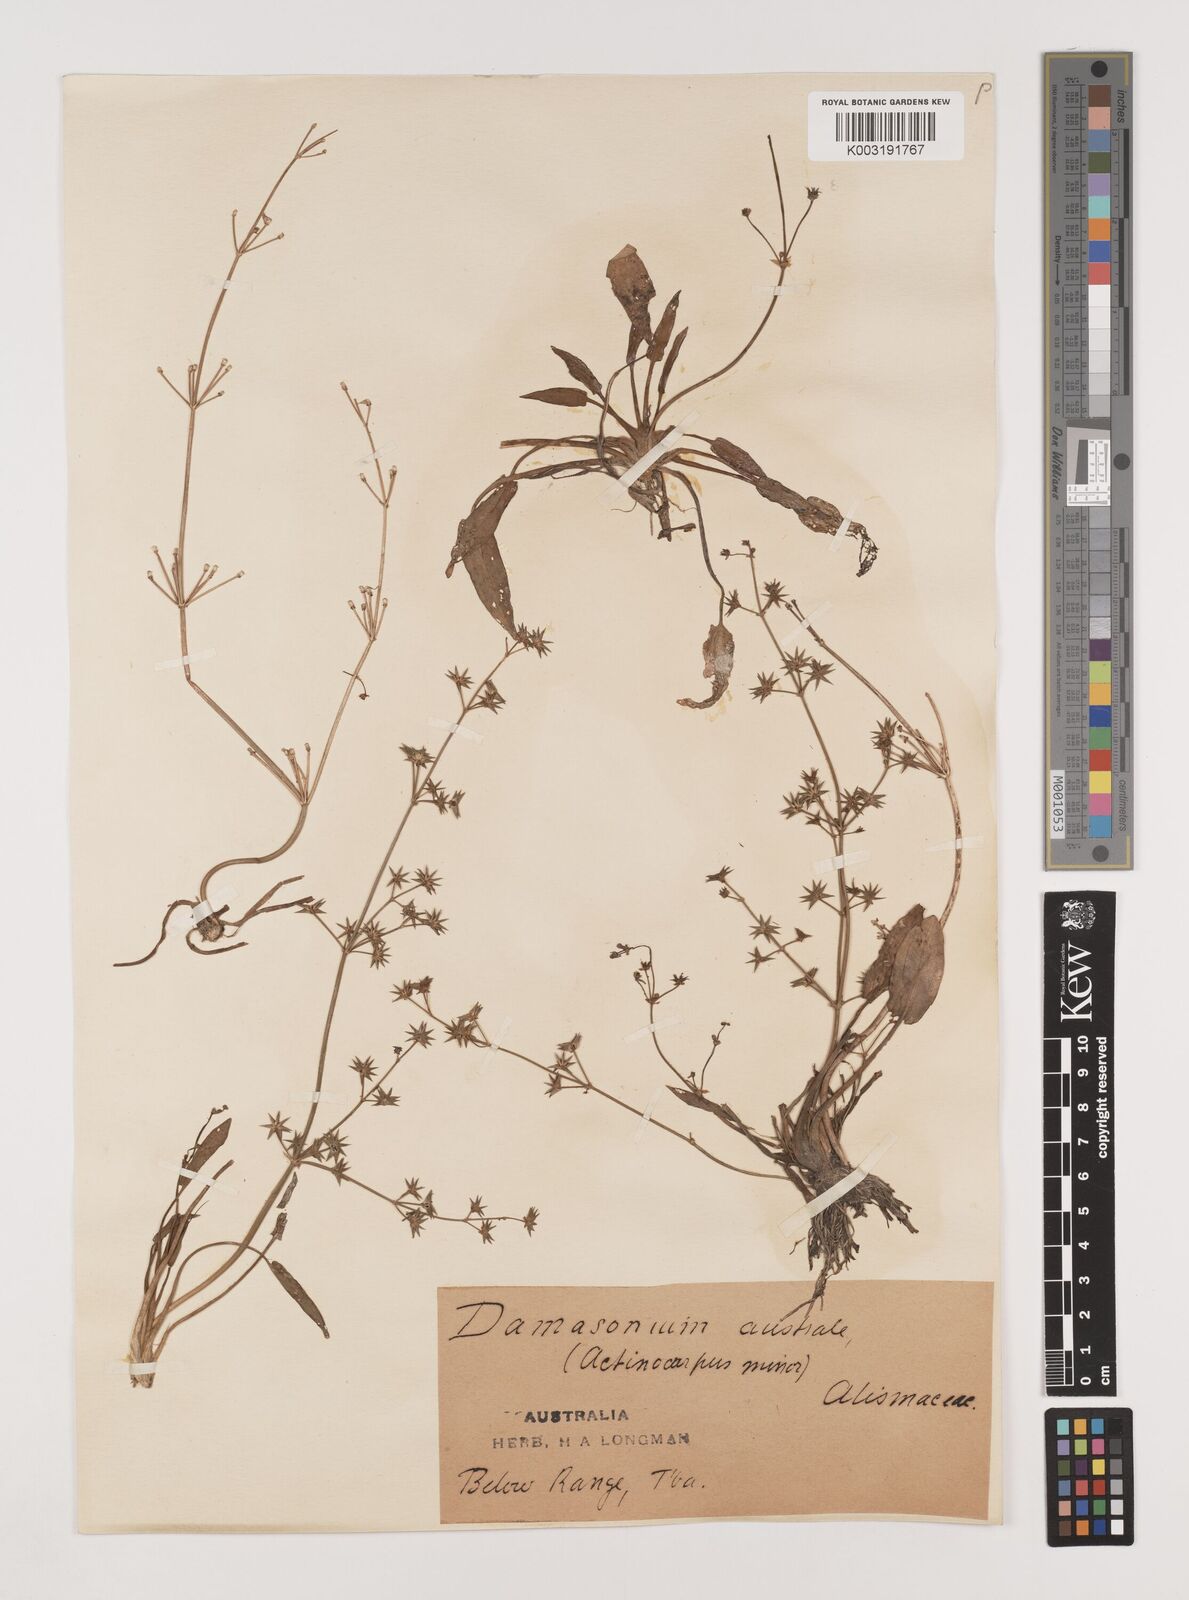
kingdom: Plantae
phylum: Tracheophyta
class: Liliopsida
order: Alismatales
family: Alismataceae
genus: Damasonium
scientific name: Damasonium minus
